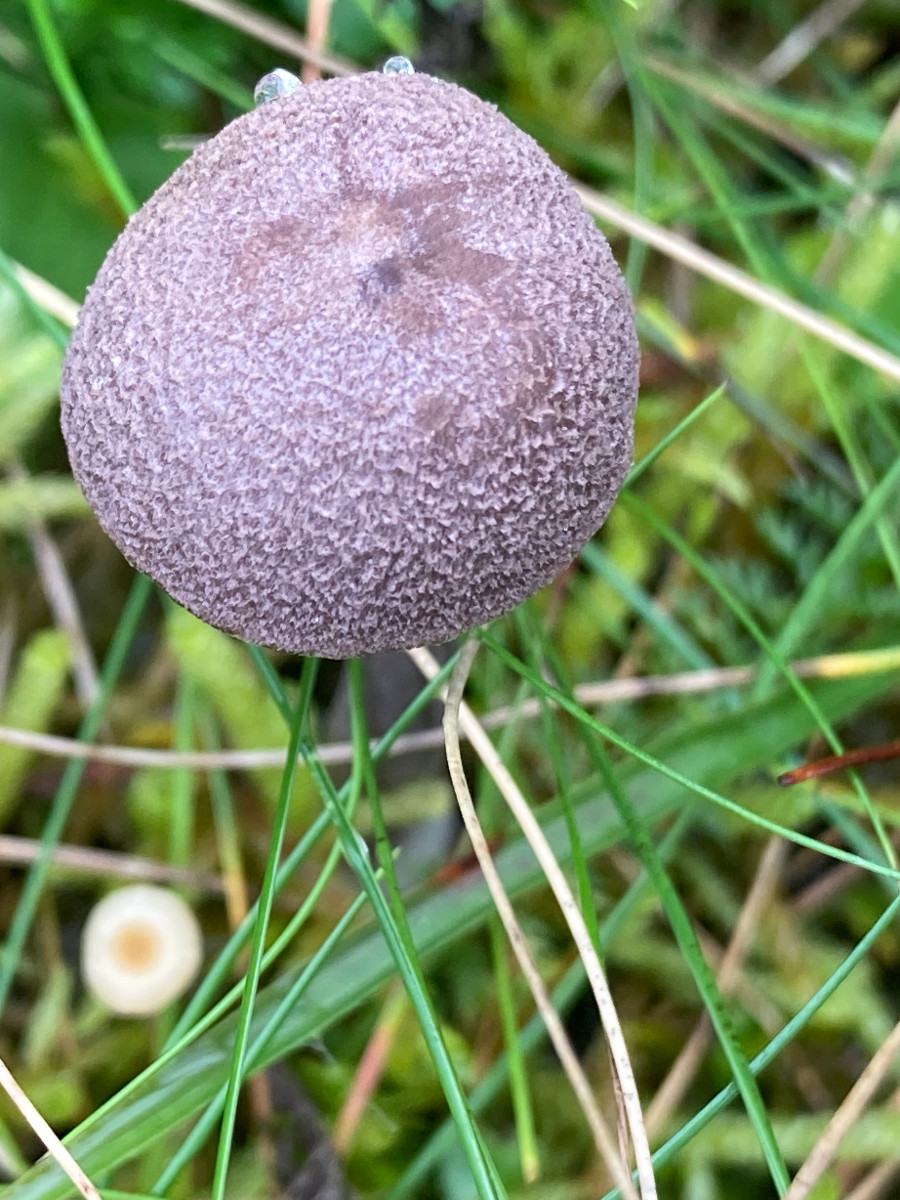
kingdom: Fungi
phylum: Basidiomycota
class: Agaricomycetes
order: Agaricales
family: Entolomataceae
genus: Entoloma
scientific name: Entoloma griseocyaneum
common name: gråblå rødblad
